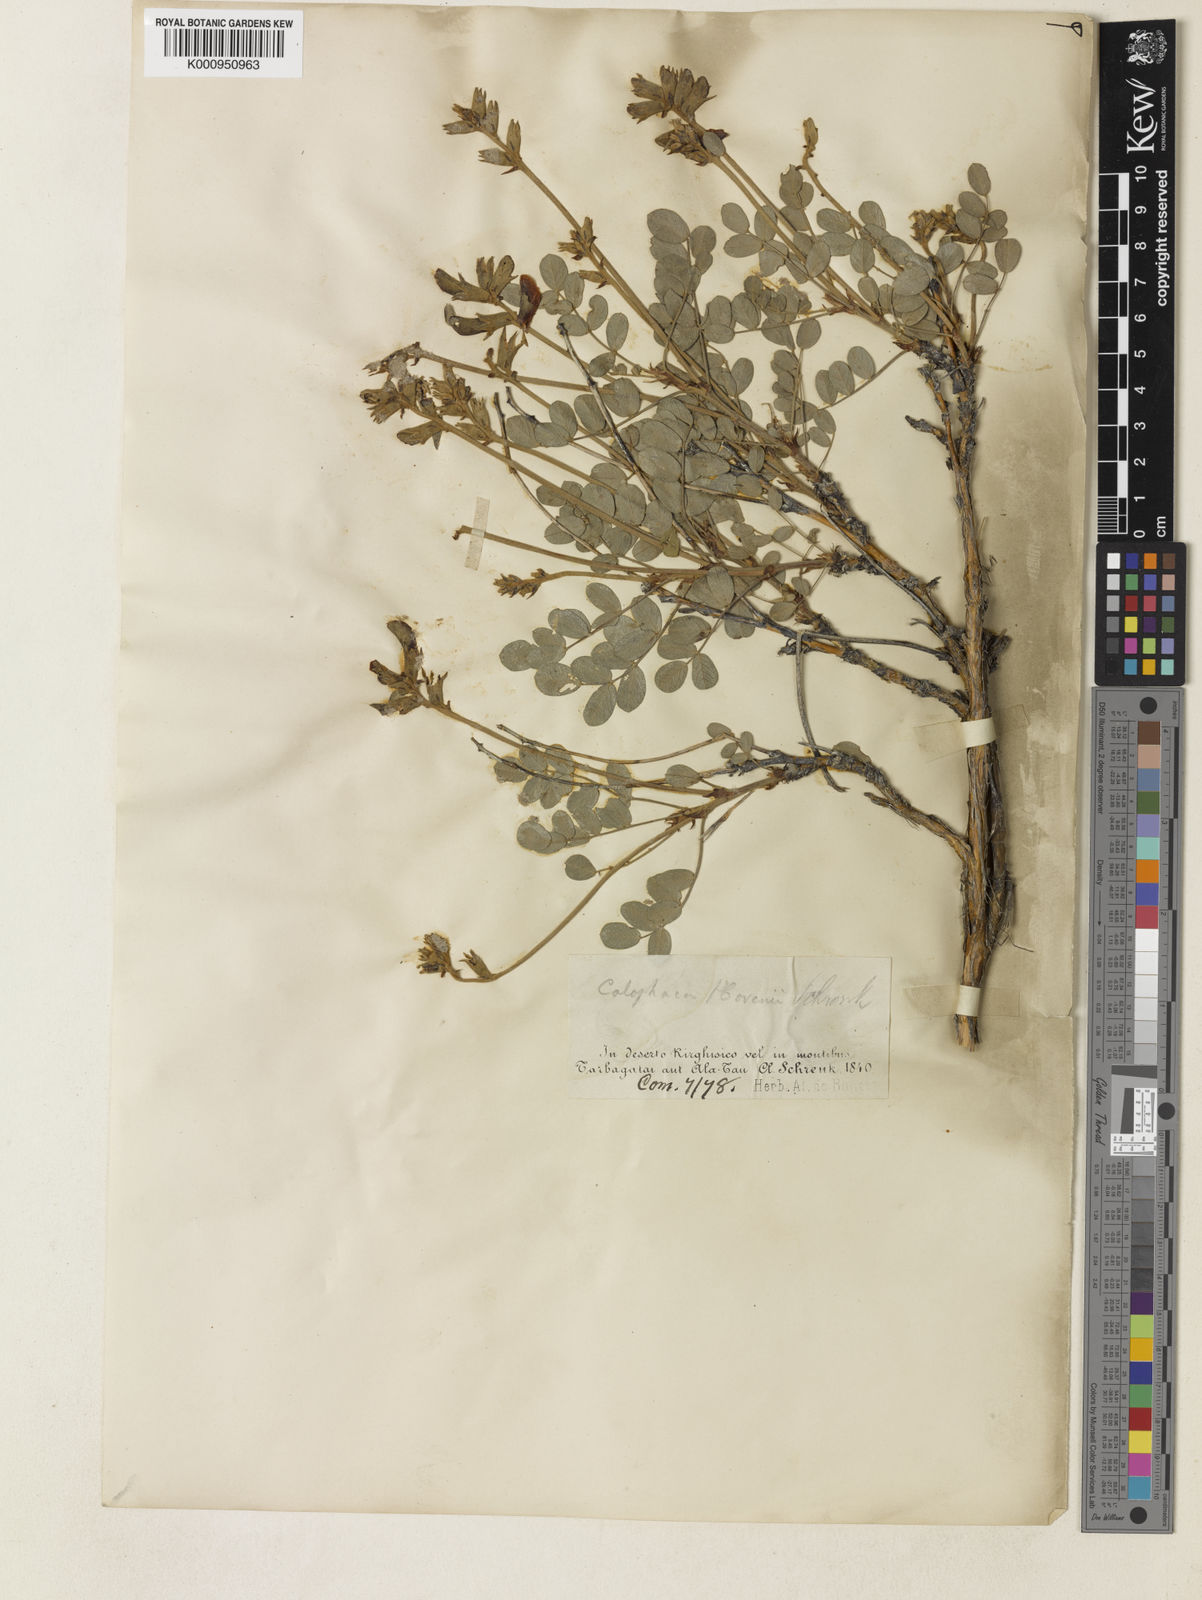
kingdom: Plantae
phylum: Tracheophyta
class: Magnoliopsida
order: Fabales
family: Fabaceae
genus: Calophaca
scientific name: Calophaca soongorica
